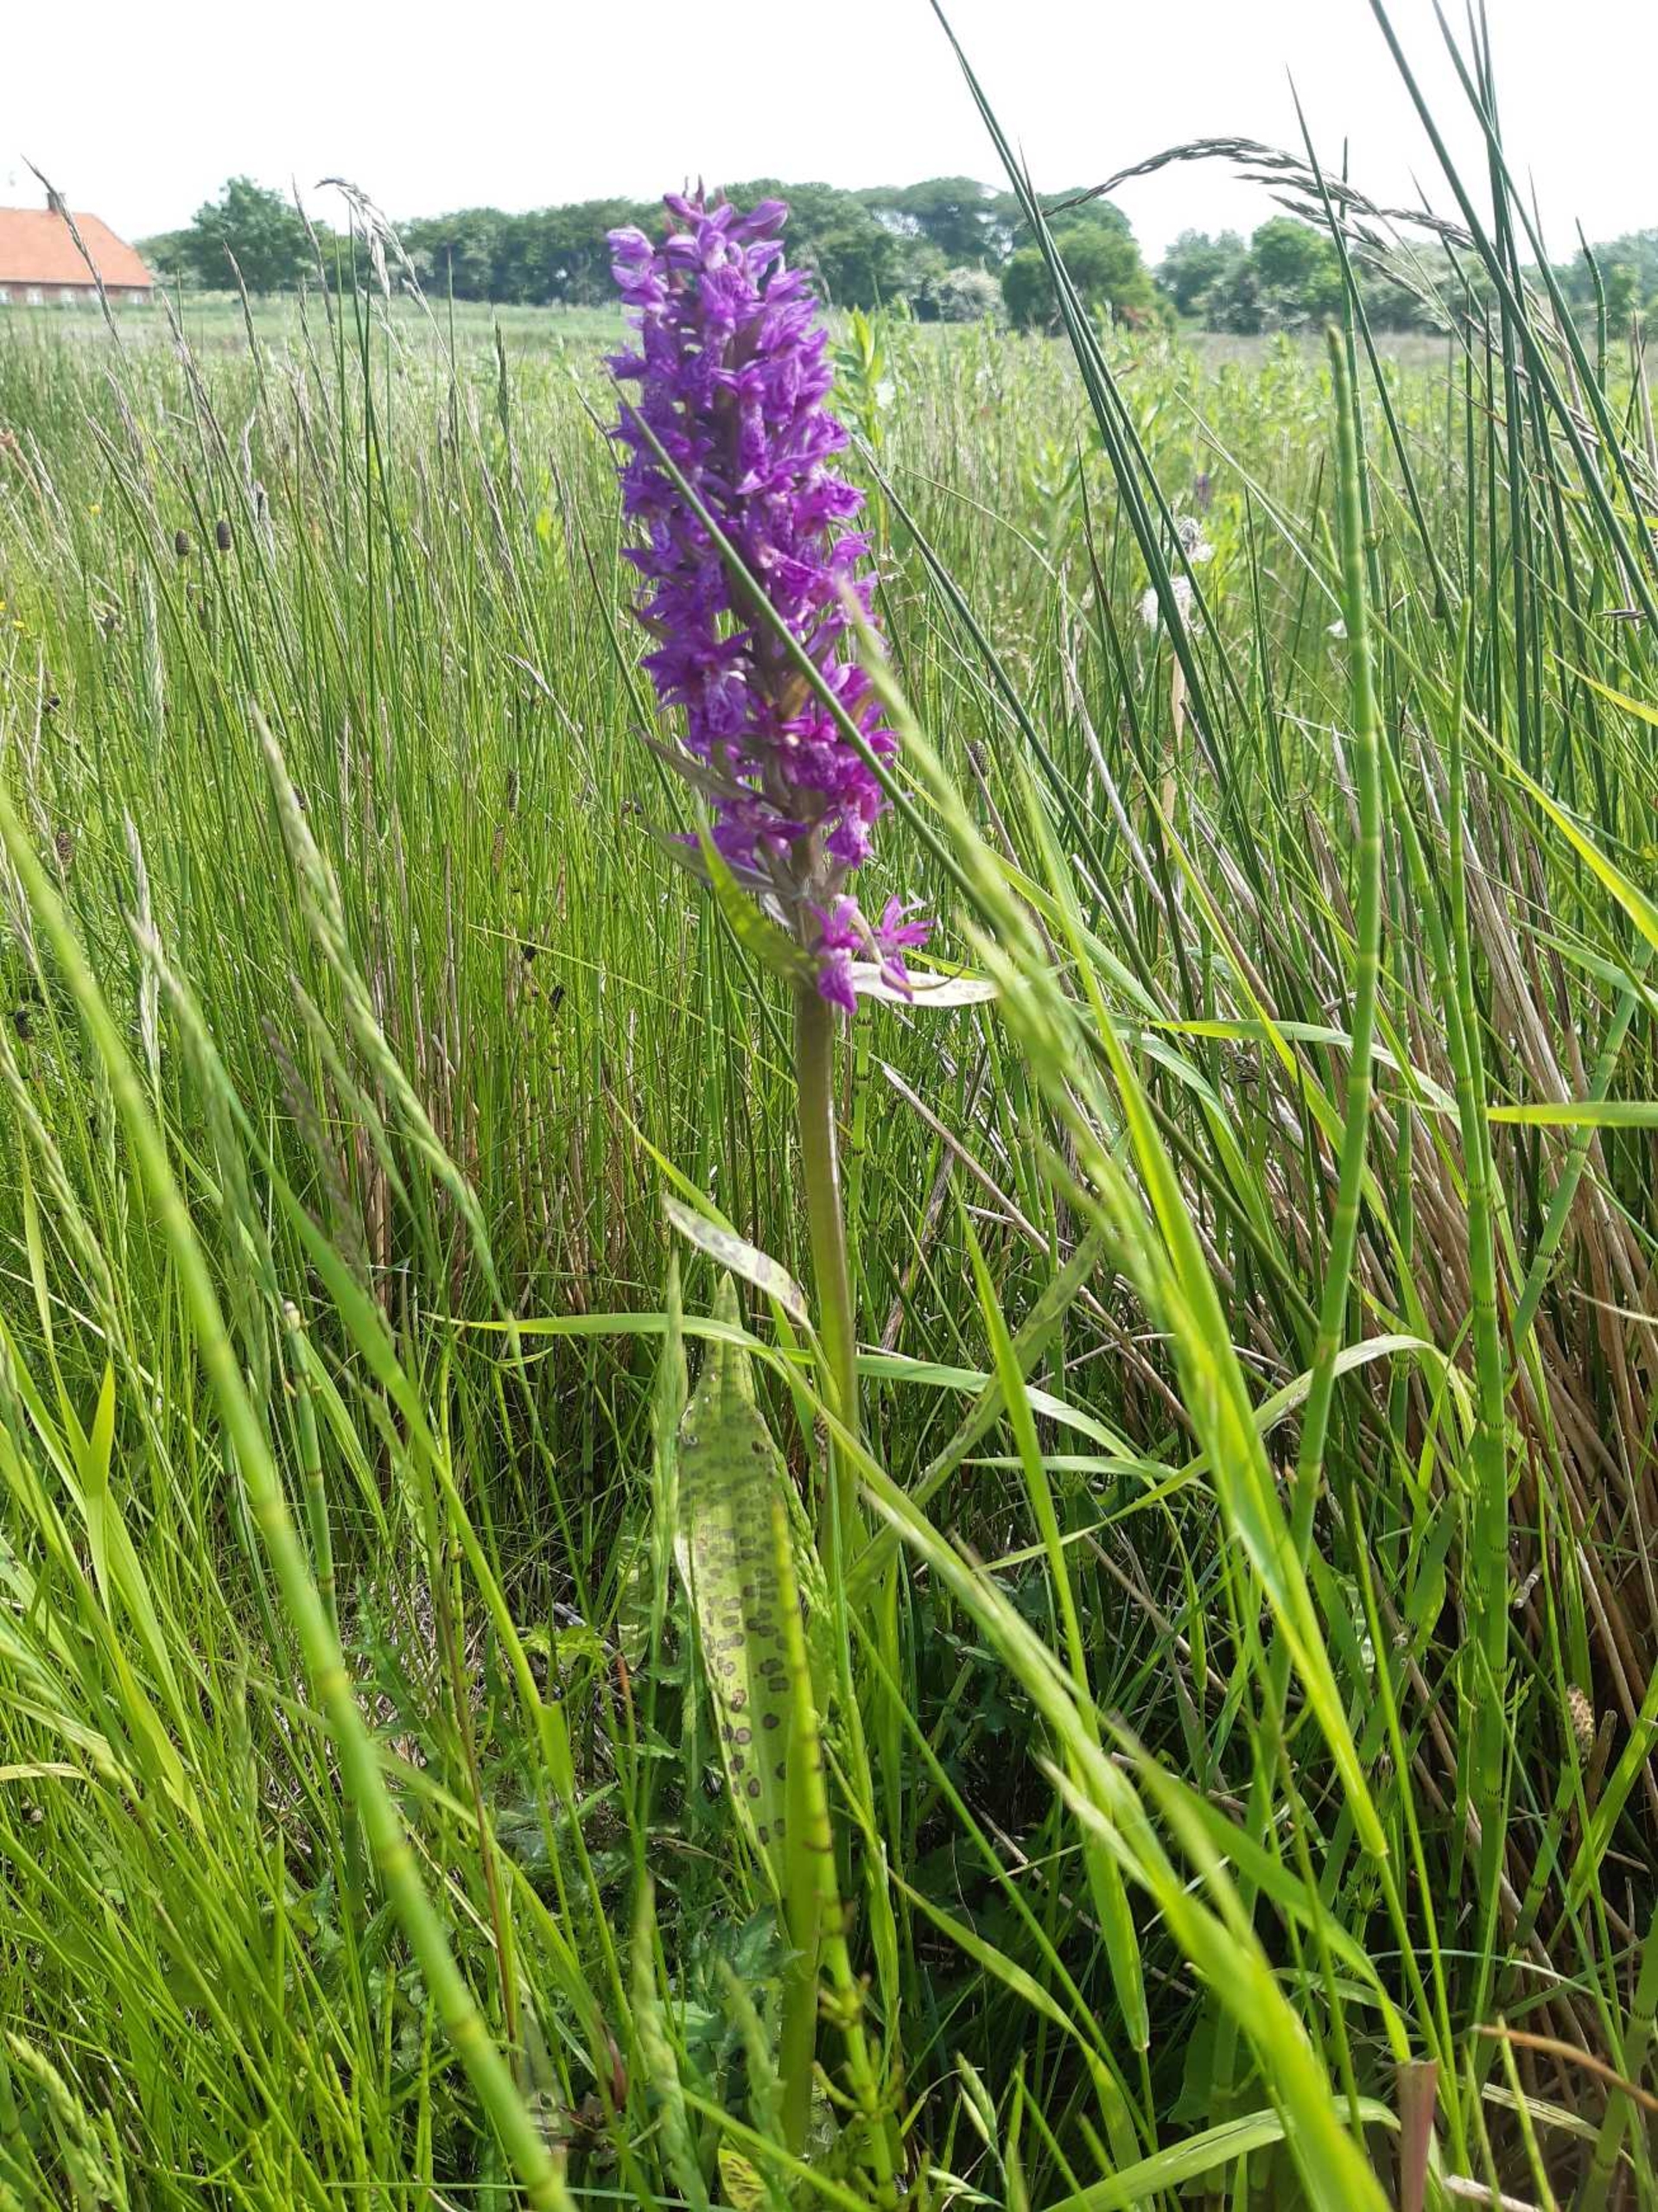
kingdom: Plantae
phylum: Tracheophyta
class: Liliopsida
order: Asparagales
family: Orchidaceae
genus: Dactylorhiza
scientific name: Dactylorhiza majalis
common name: Maj-gøgeurt (underart)
